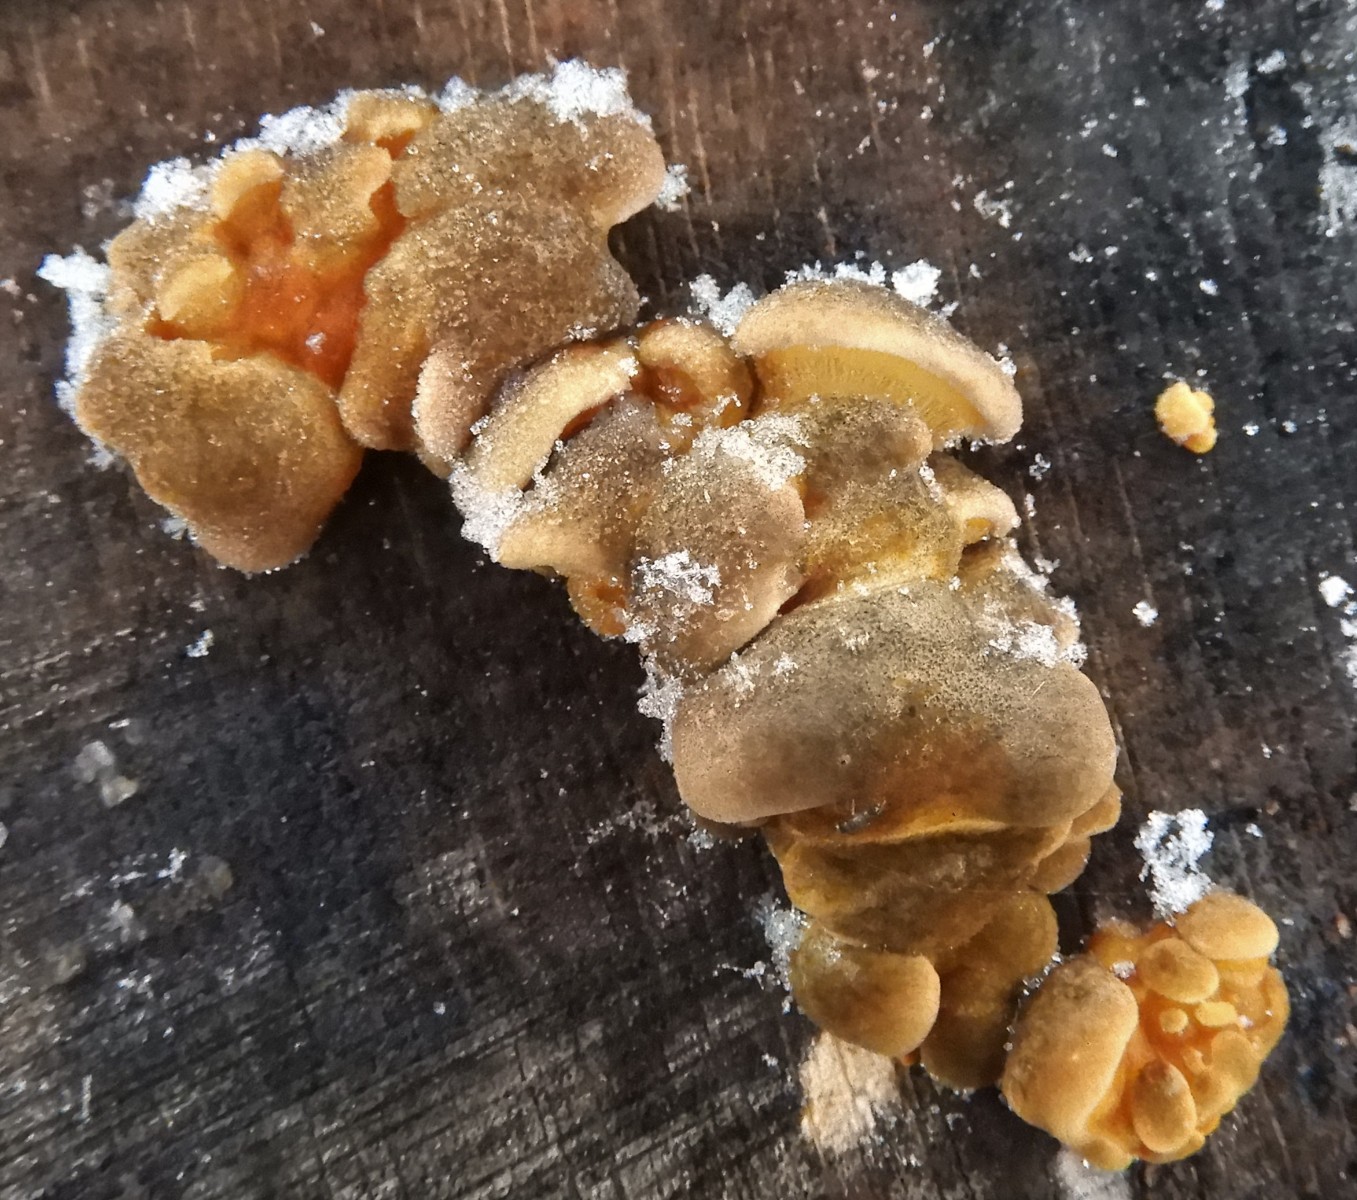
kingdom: Fungi
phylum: Basidiomycota
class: Agaricomycetes
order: Agaricales
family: Sarcomyxaceae
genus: Sarcomyxa
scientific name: Sarcomyxa serotina
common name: gummihat
